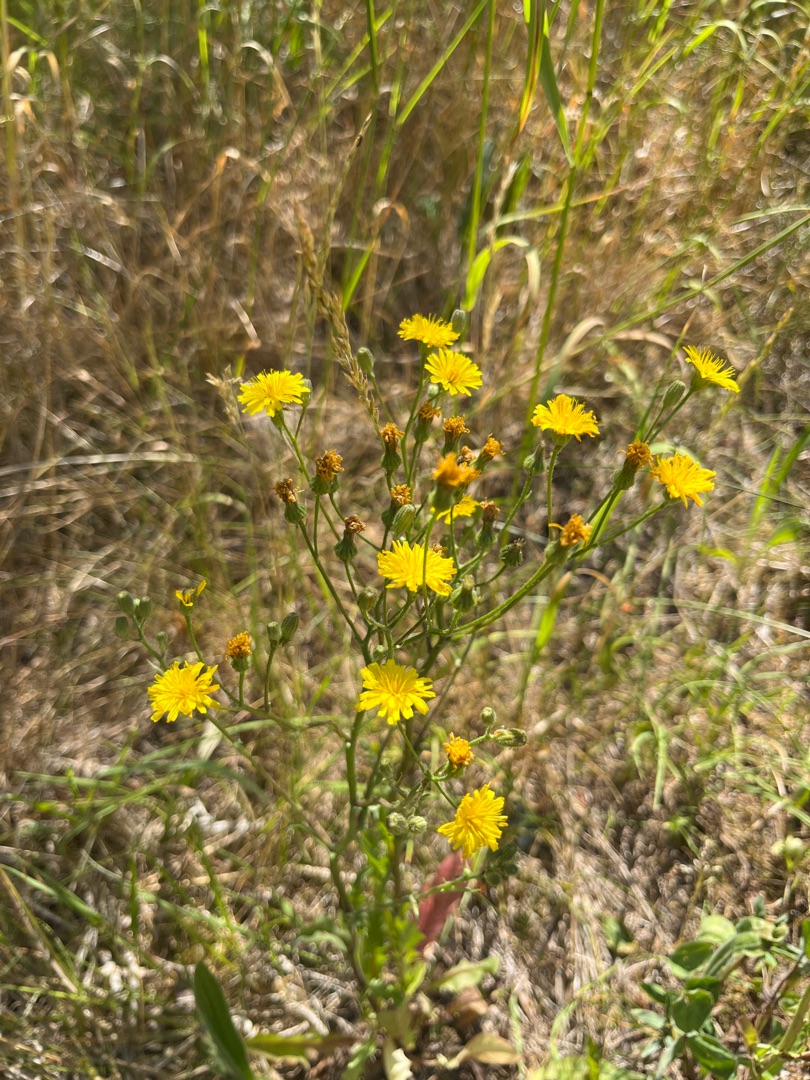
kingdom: Plantae
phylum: Tracheophyta
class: Magnoliopsida
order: Asterales
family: Asteraceae
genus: Crepis
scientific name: Crepis capillaris
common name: Grøn høgeskæg
